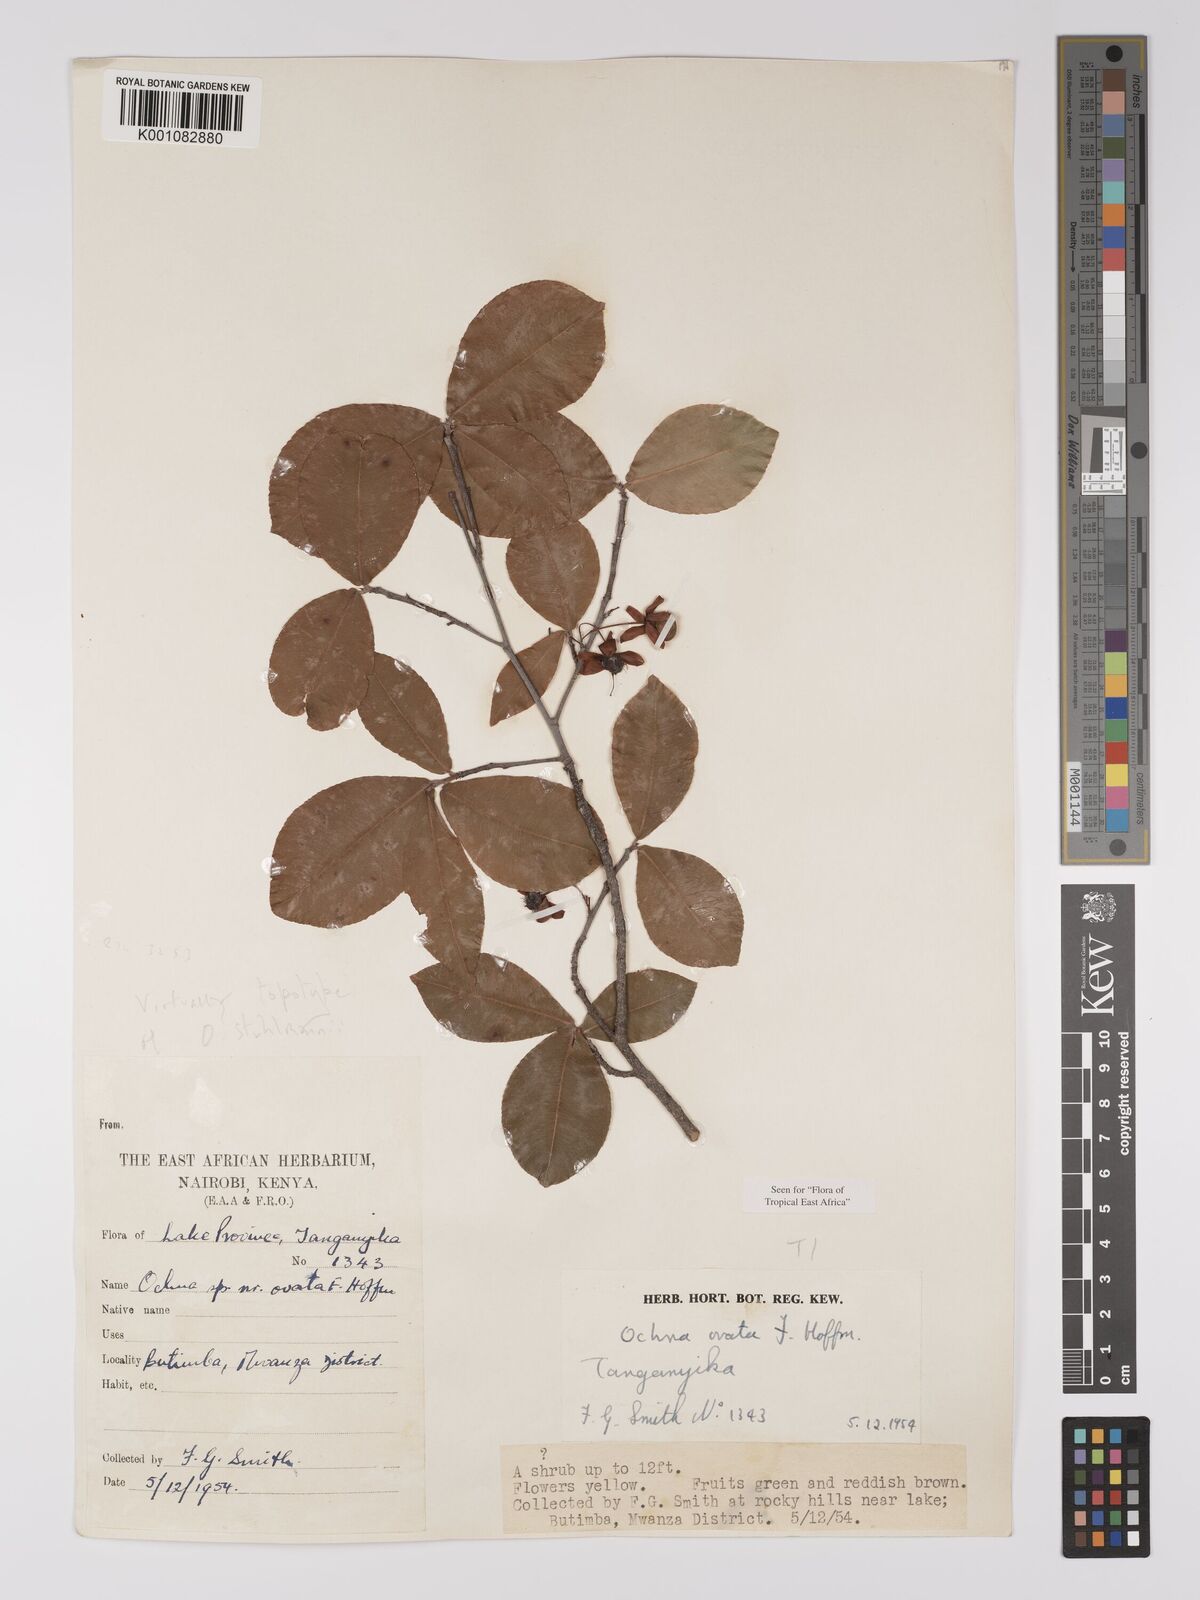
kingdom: Plantae
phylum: Tracheophyta
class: Magnoliopsida
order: Malpighiales
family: Ochnaceae
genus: Ochna
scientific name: Ochna ovata
